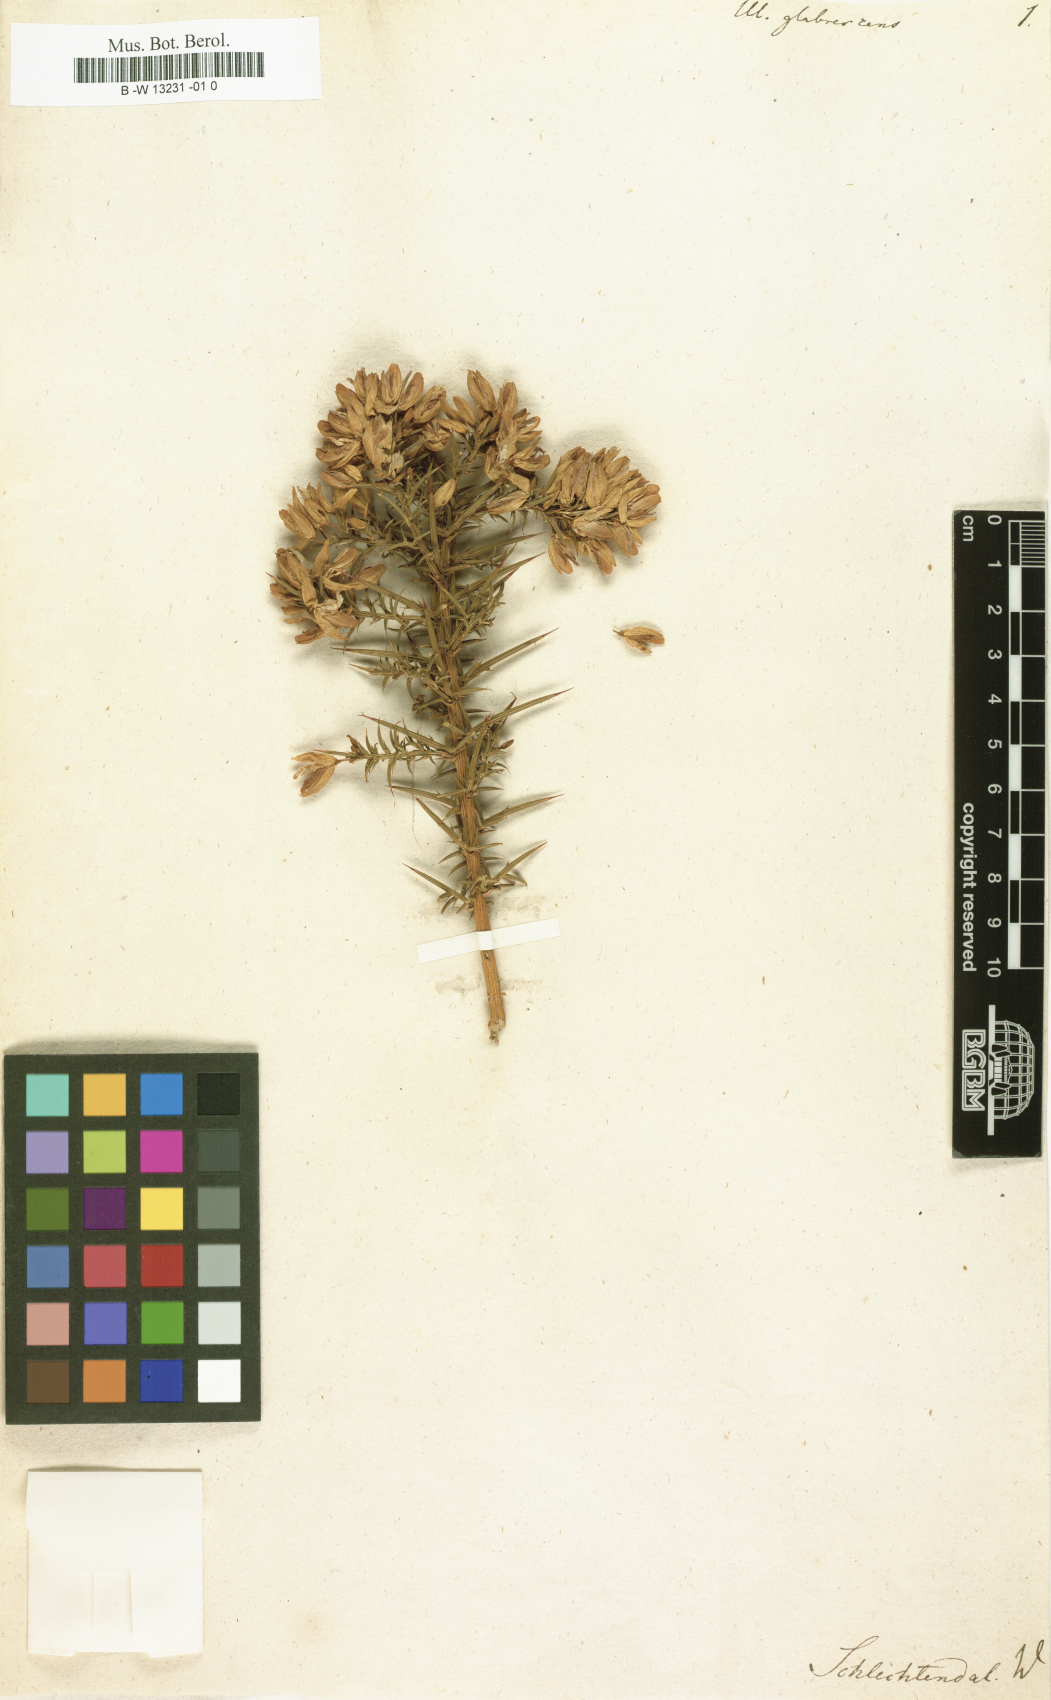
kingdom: Plantae
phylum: Tracheophyta
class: Magnoliopsida
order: Fabales
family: Fabaceae
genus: Ulex
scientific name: Ulex
